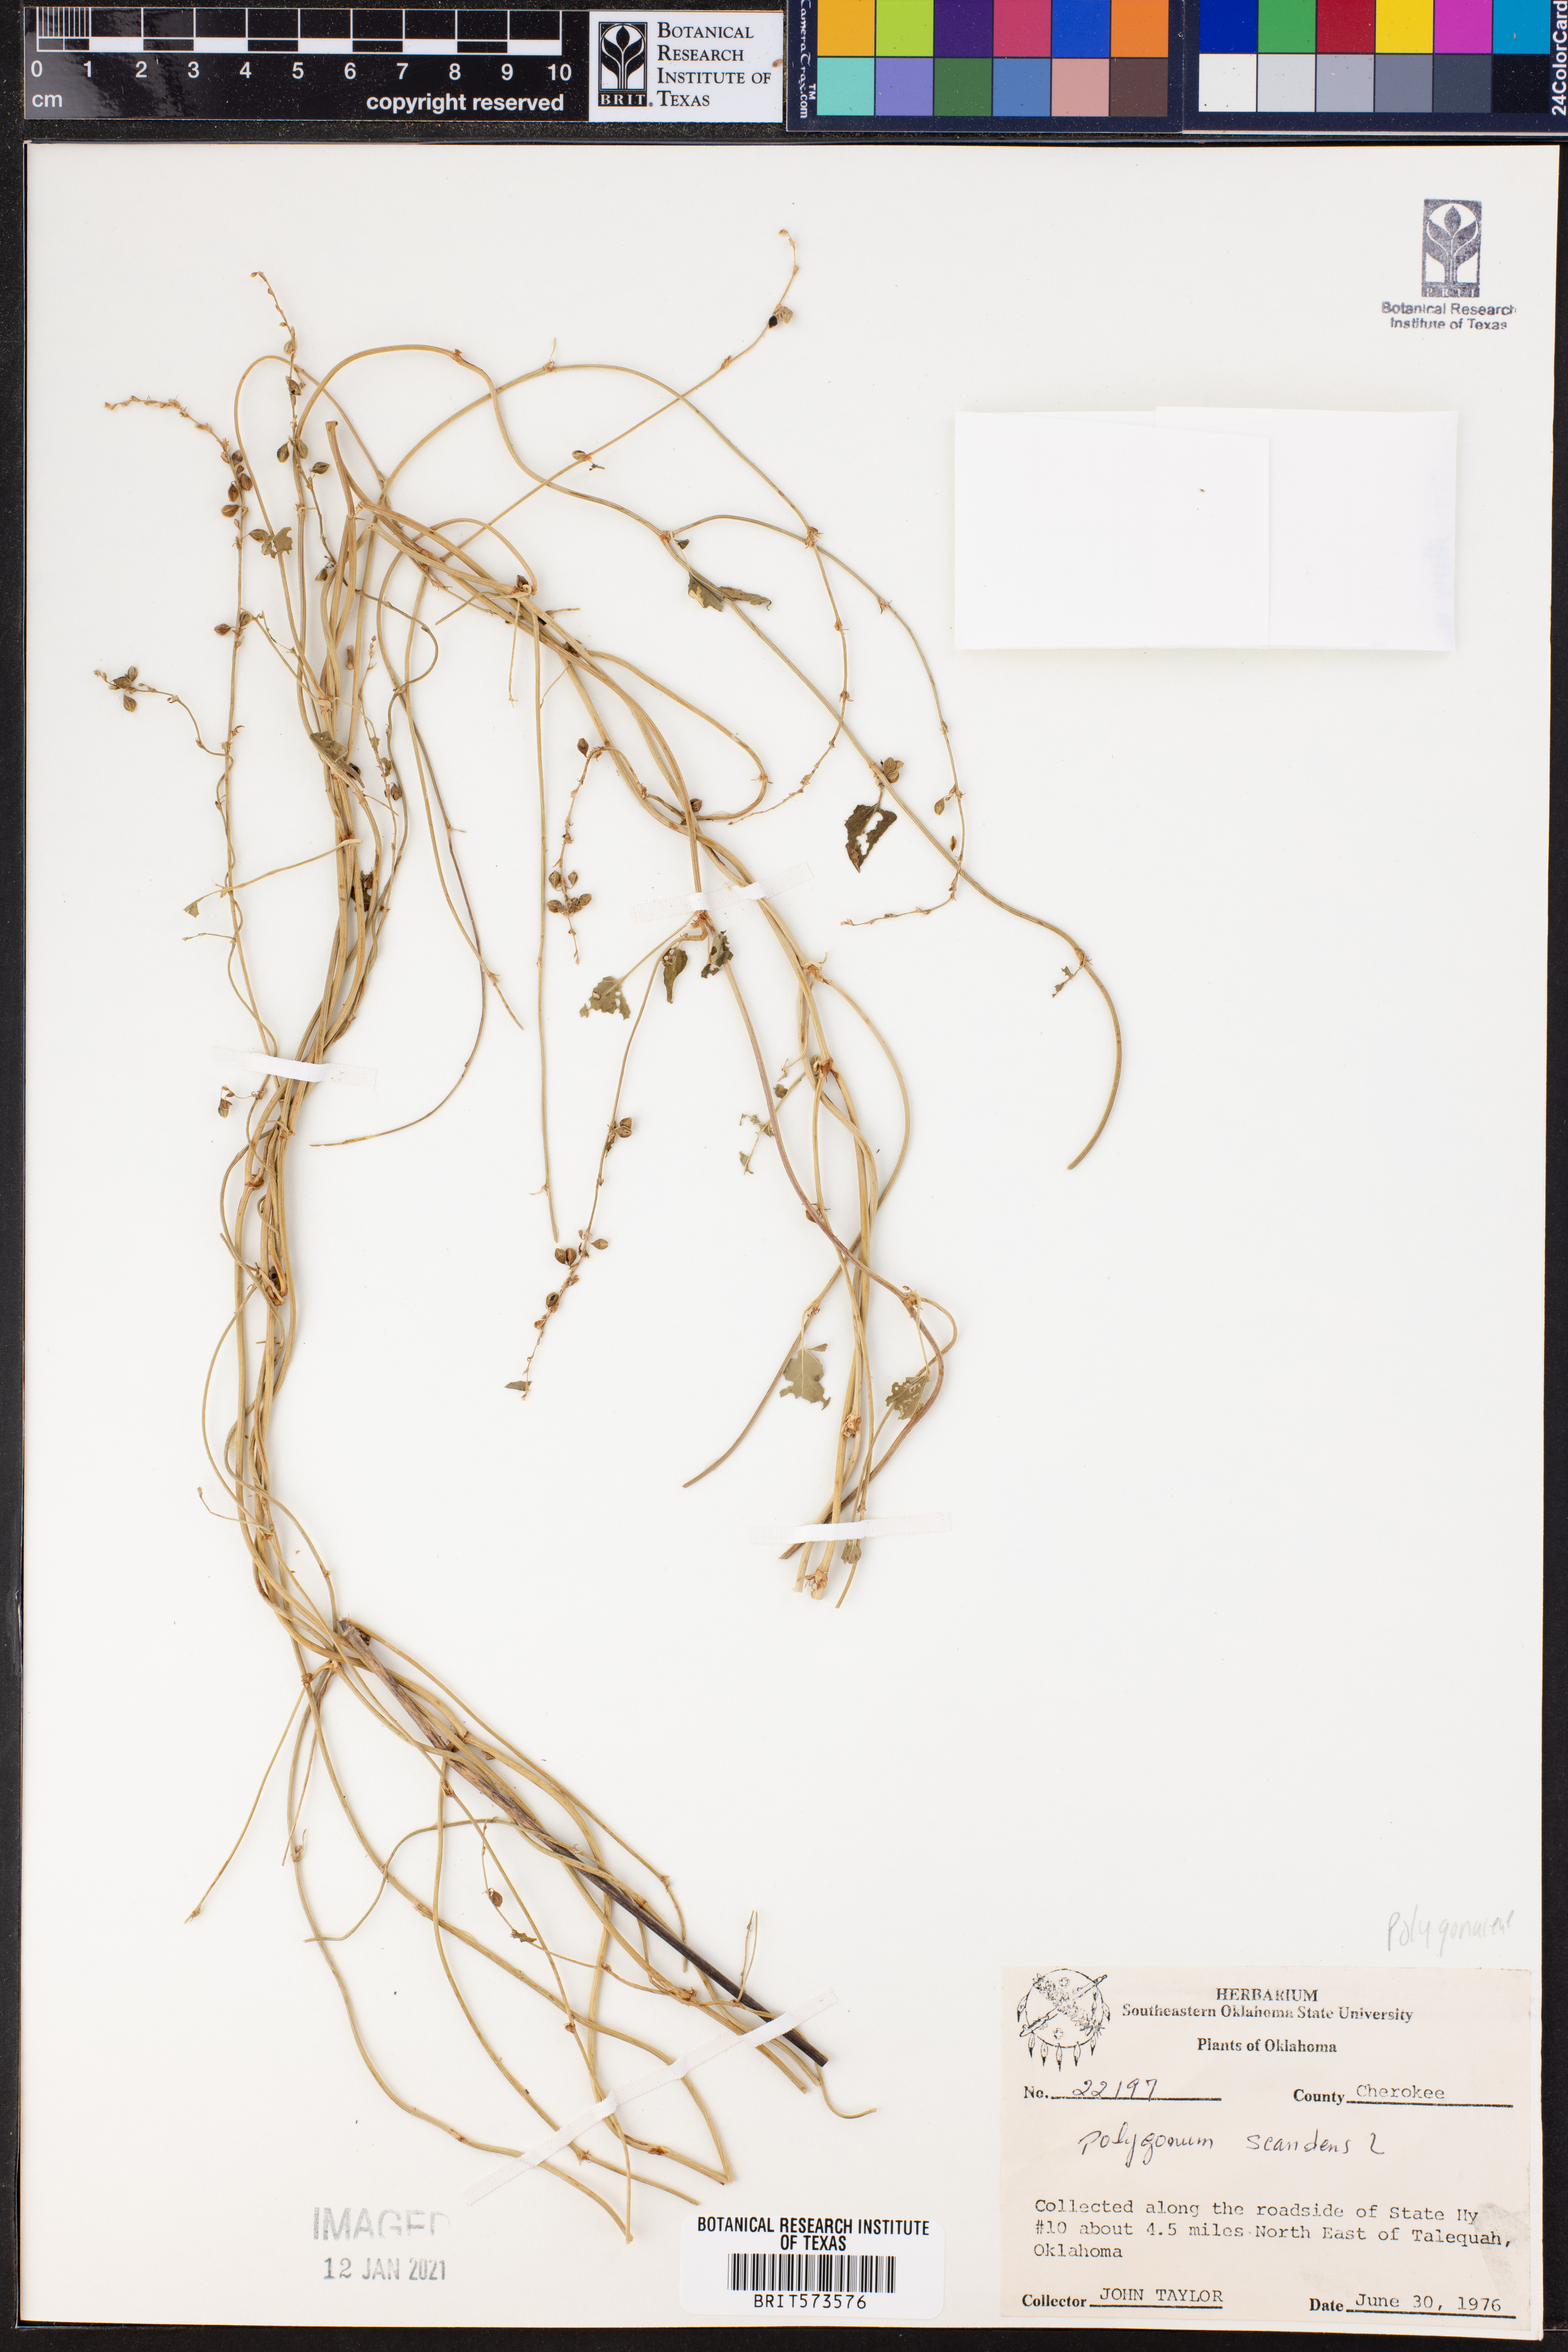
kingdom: Plantae
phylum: Tracheophyta
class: Magnoliopsida
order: Caryophyllales
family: Polygonaceae
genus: Fallopia
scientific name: Fallopia scandens
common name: Climbing false buckwheat
